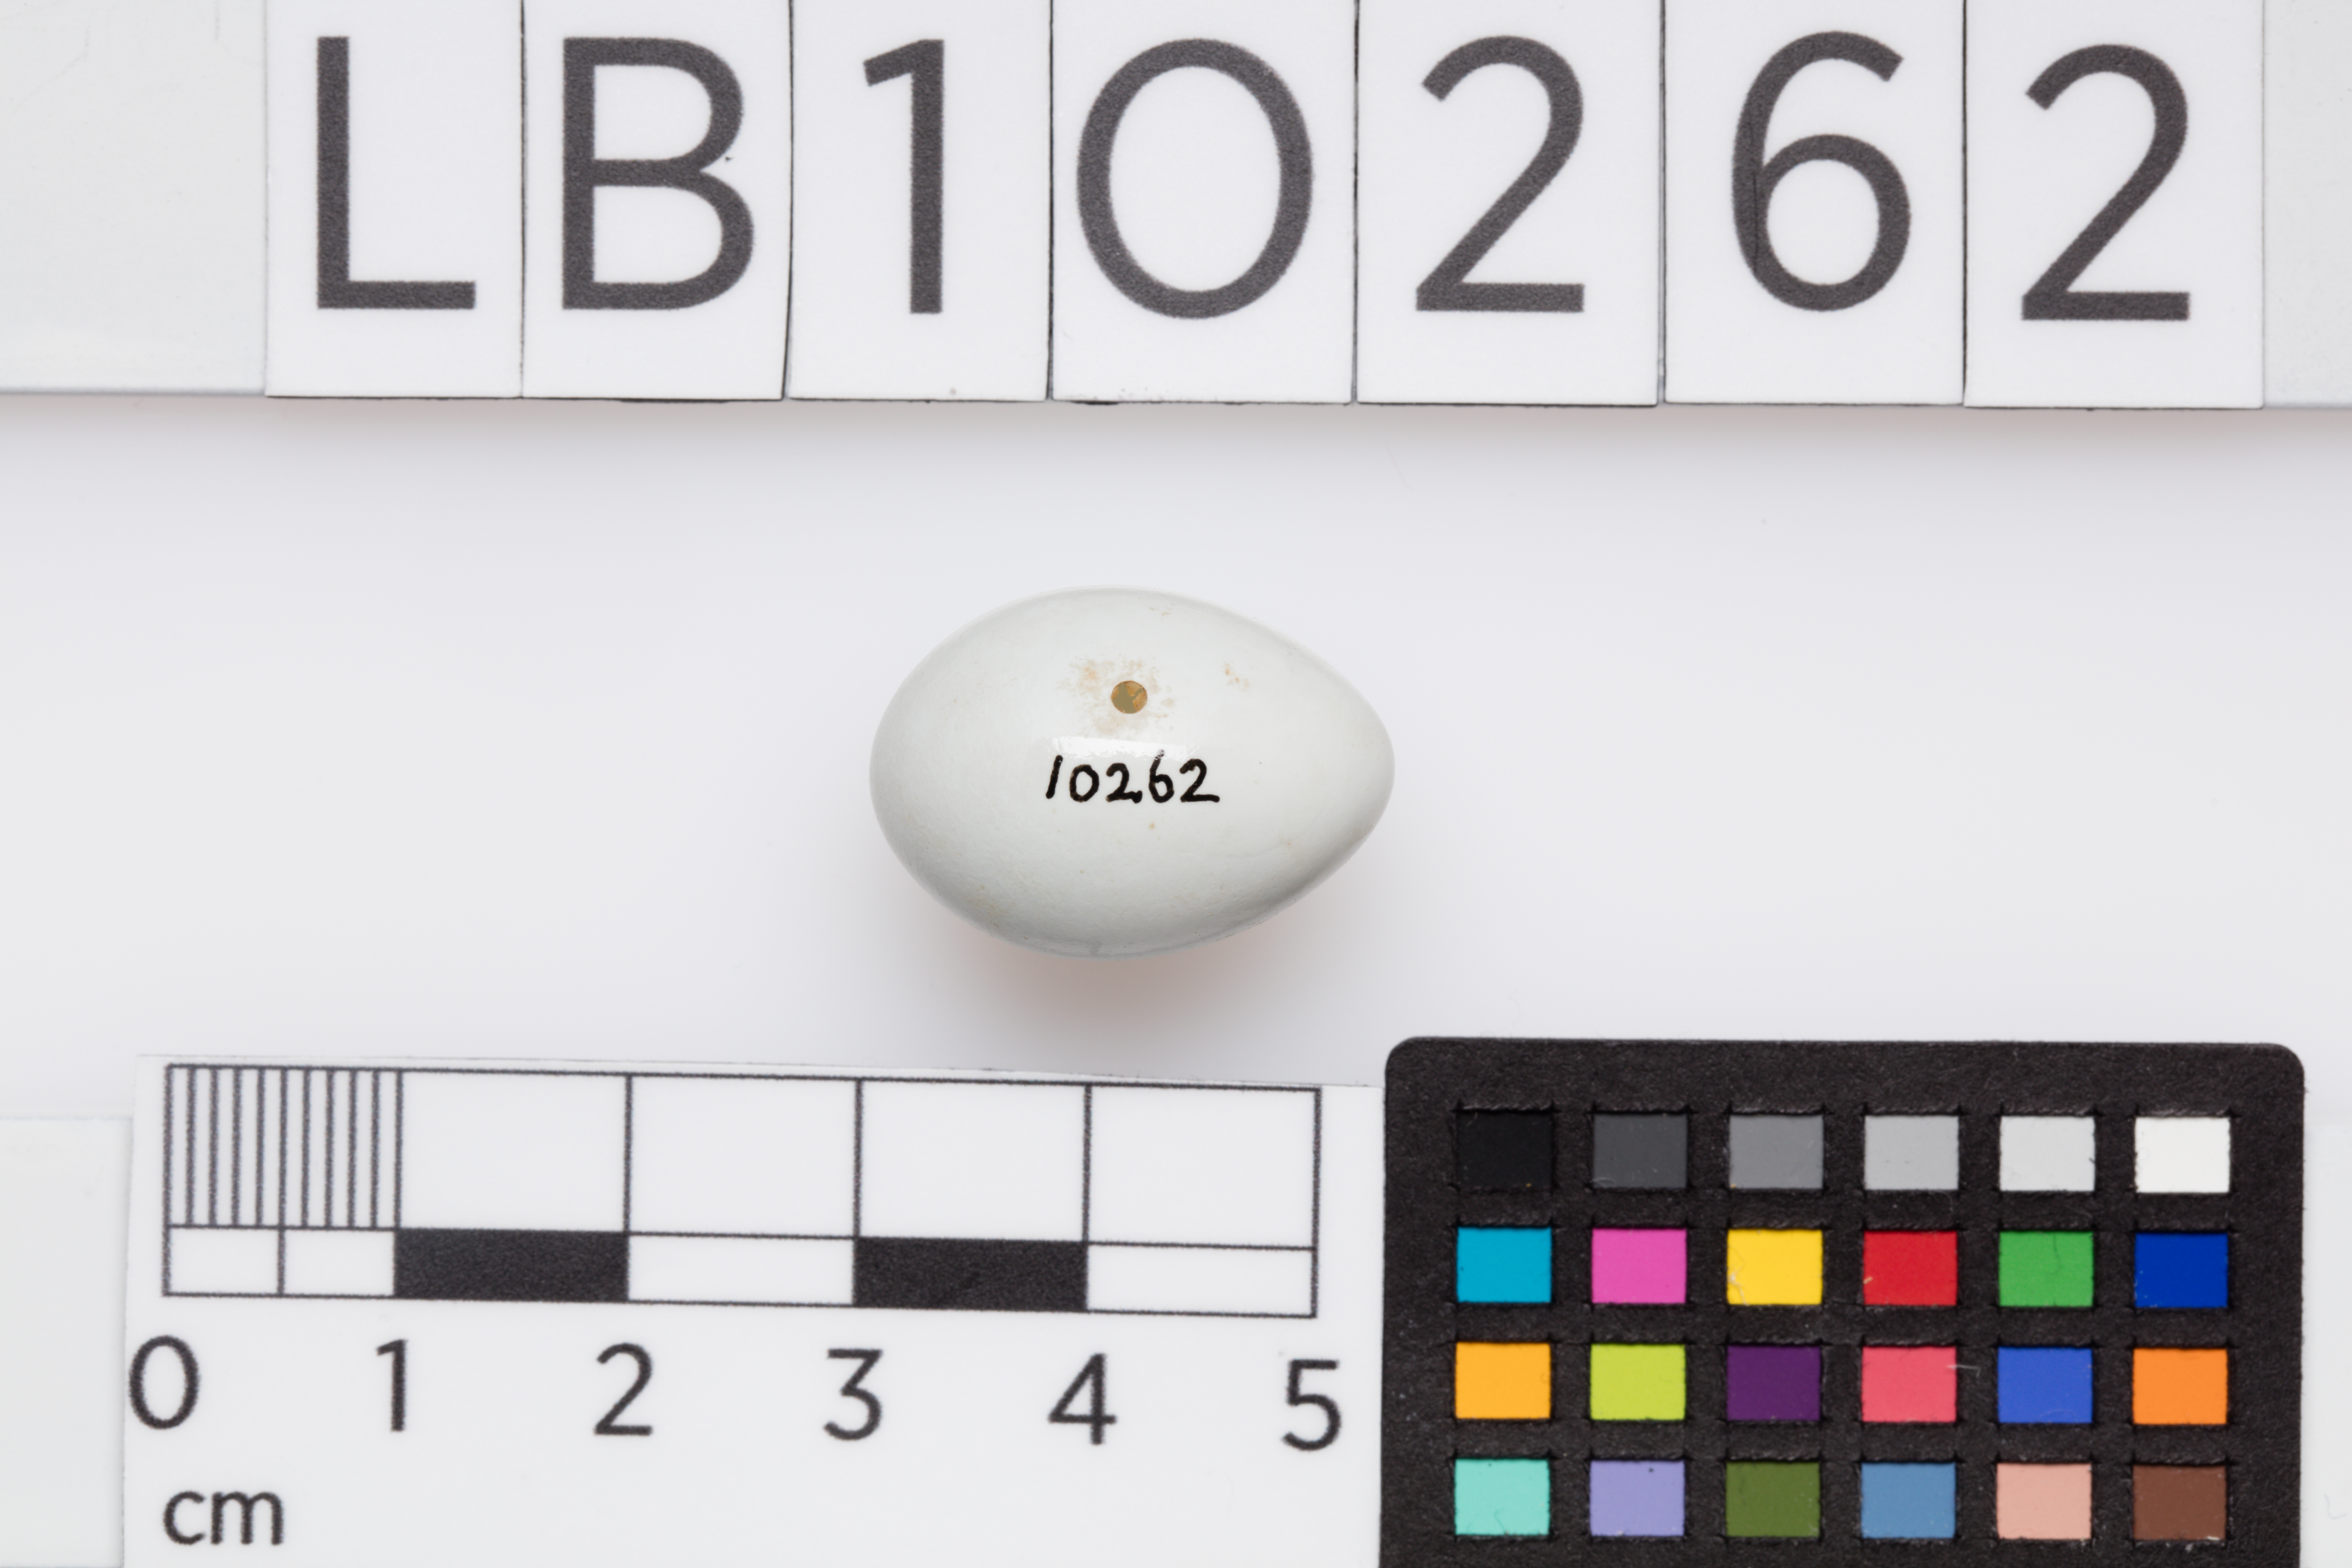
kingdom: Animalia
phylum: Chordata
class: Aves
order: Passeriformes
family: Muscicapidae
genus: Oenanthe
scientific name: Oenanthe oenanthe
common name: Northern wheatear
